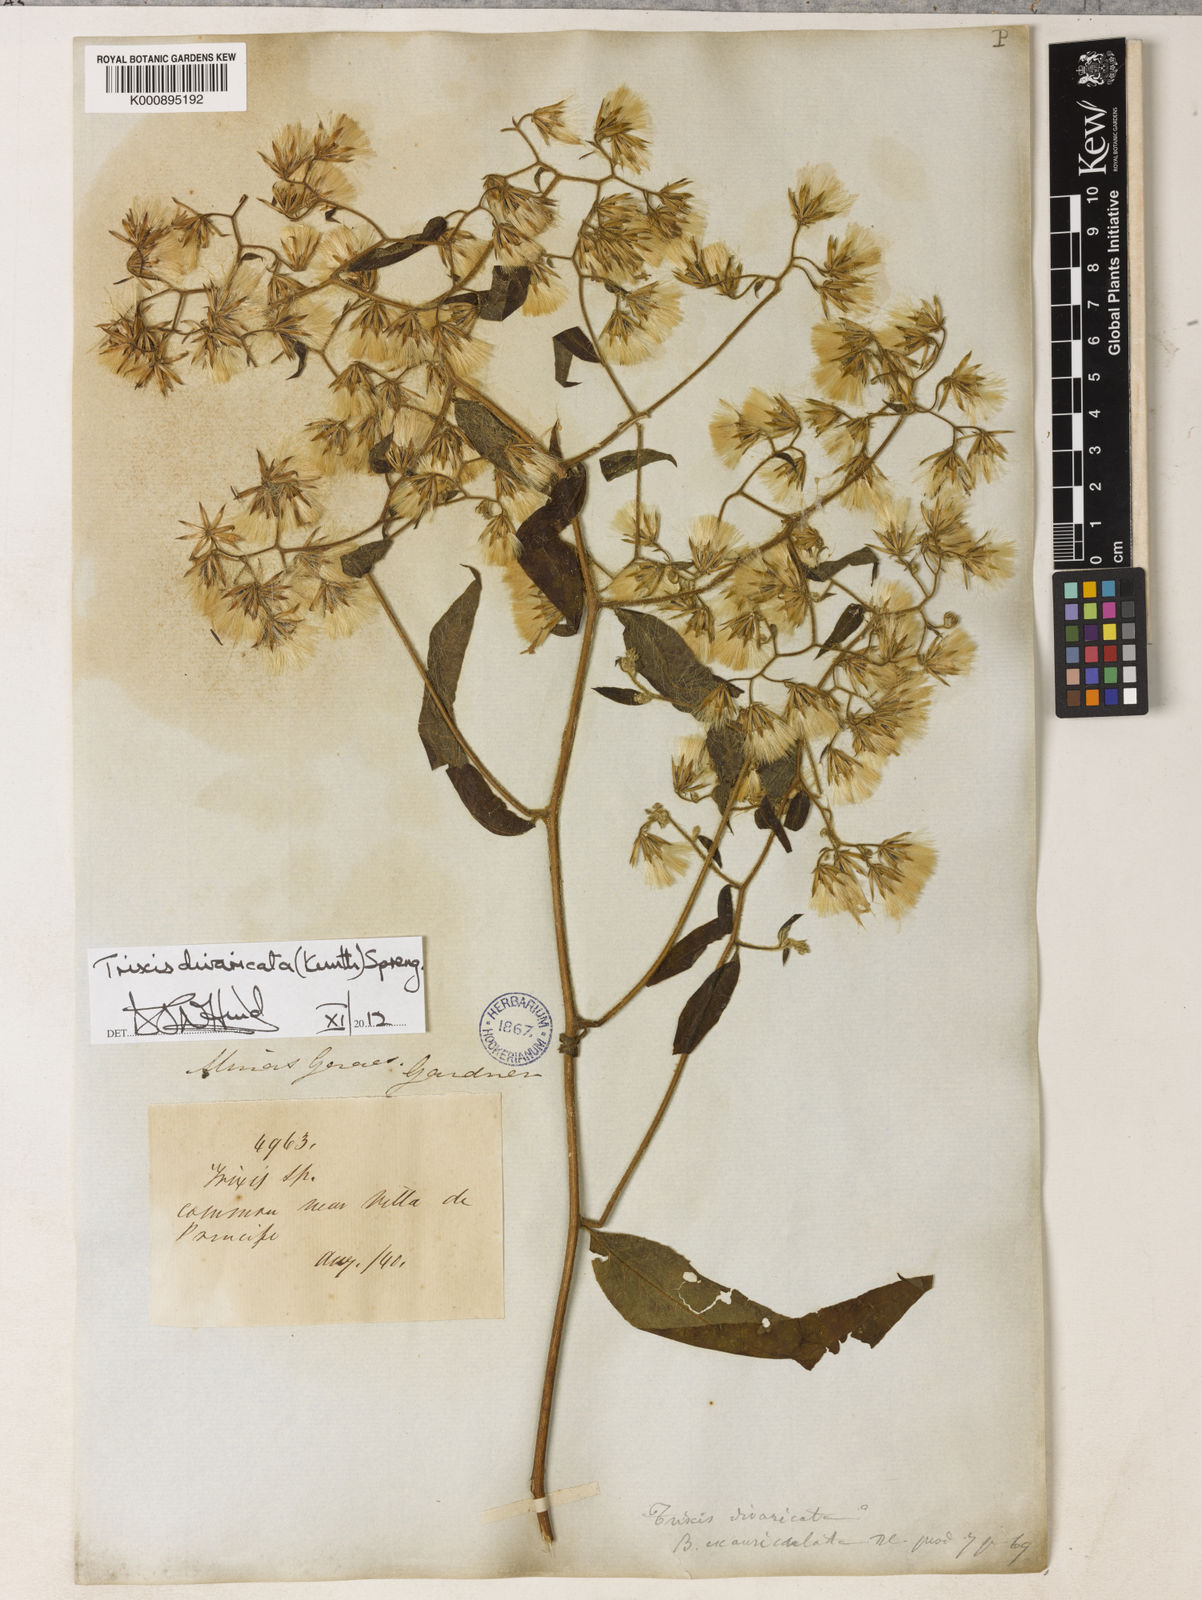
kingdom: Plantae
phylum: Tracheophyta
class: Magnoliopsida
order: Asterales
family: Asteraceae
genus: Trixis
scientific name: Trixis divaricata
